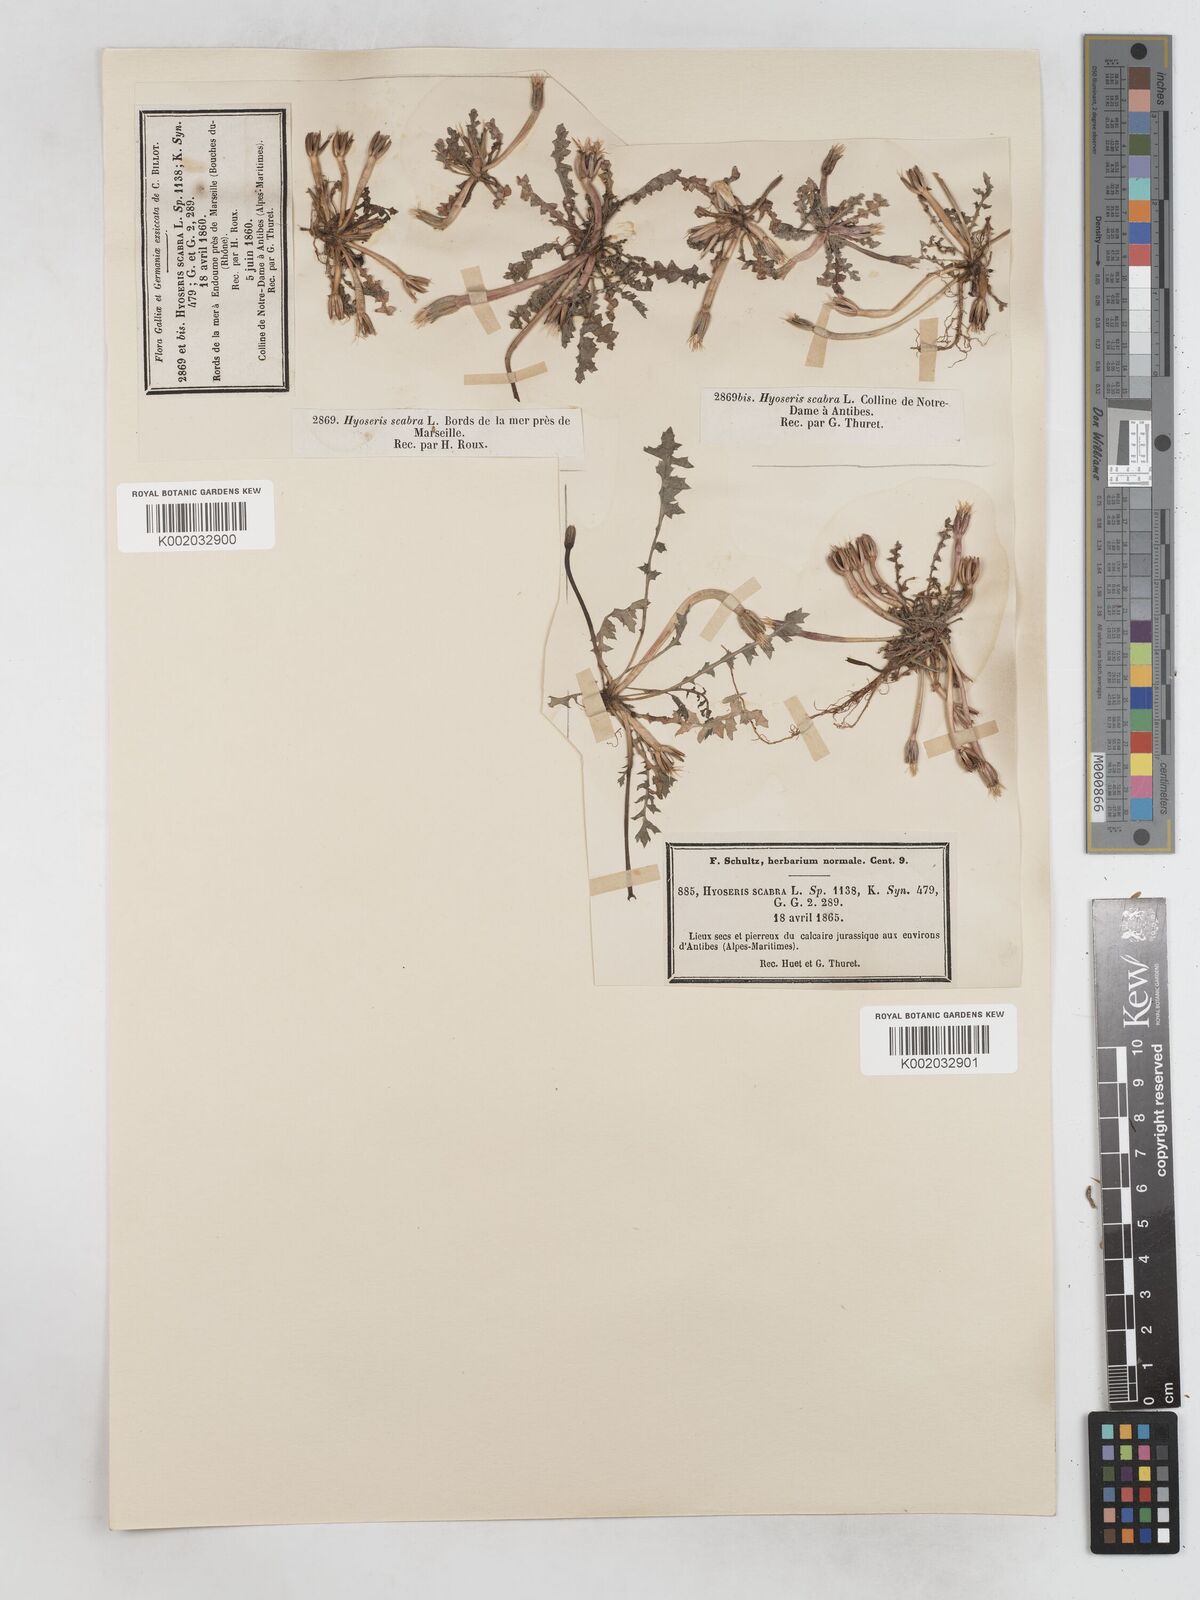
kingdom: Plantae
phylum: Tracheophyta
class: Magnoliopsida
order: Asterales
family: Asteraceae
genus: Hyoseris
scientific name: Hyoseris scabra
